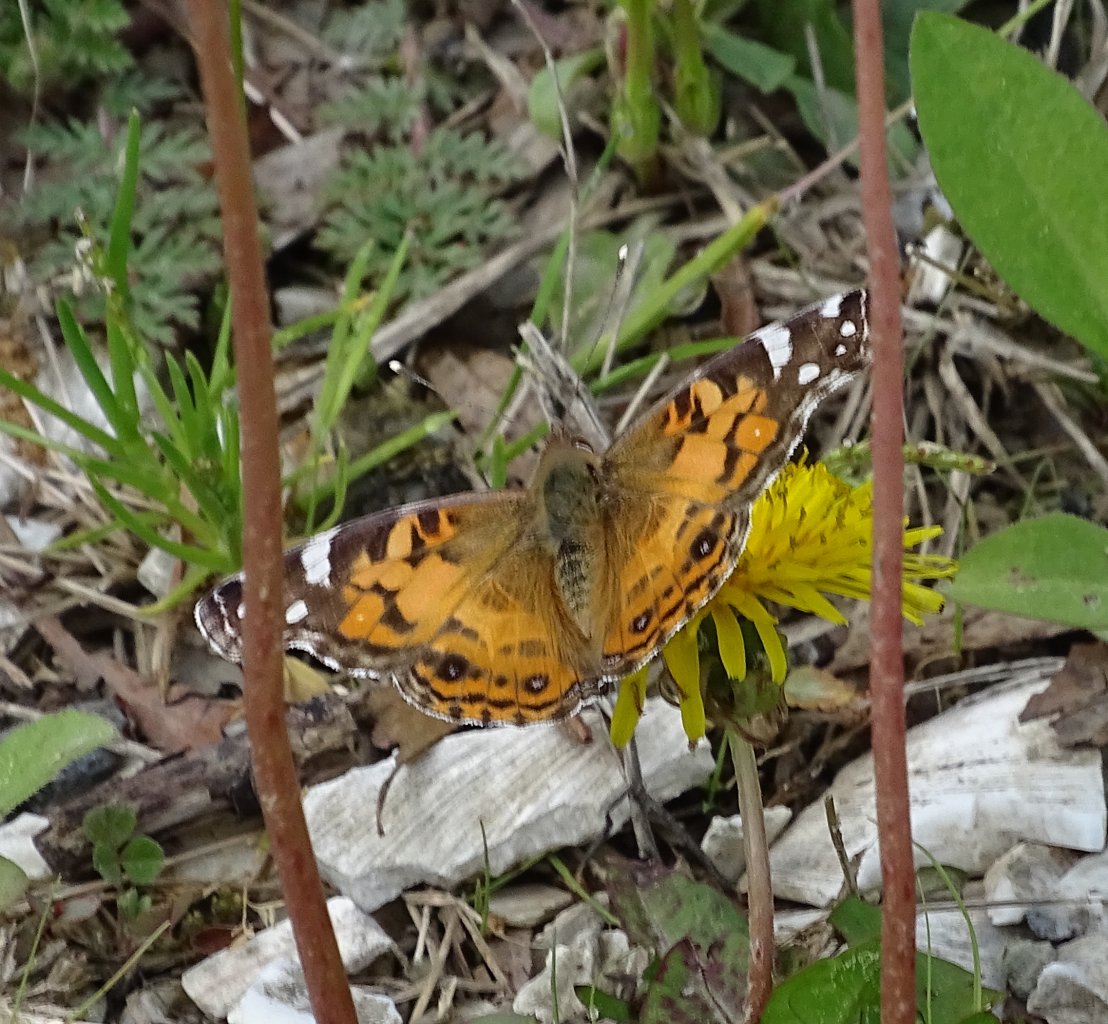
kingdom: Animalia
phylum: Arthropoda
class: Insecta
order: Lepidoptera
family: Nymphalidae
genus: Vanessa
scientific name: Vanessa virginiensis
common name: American Lady
